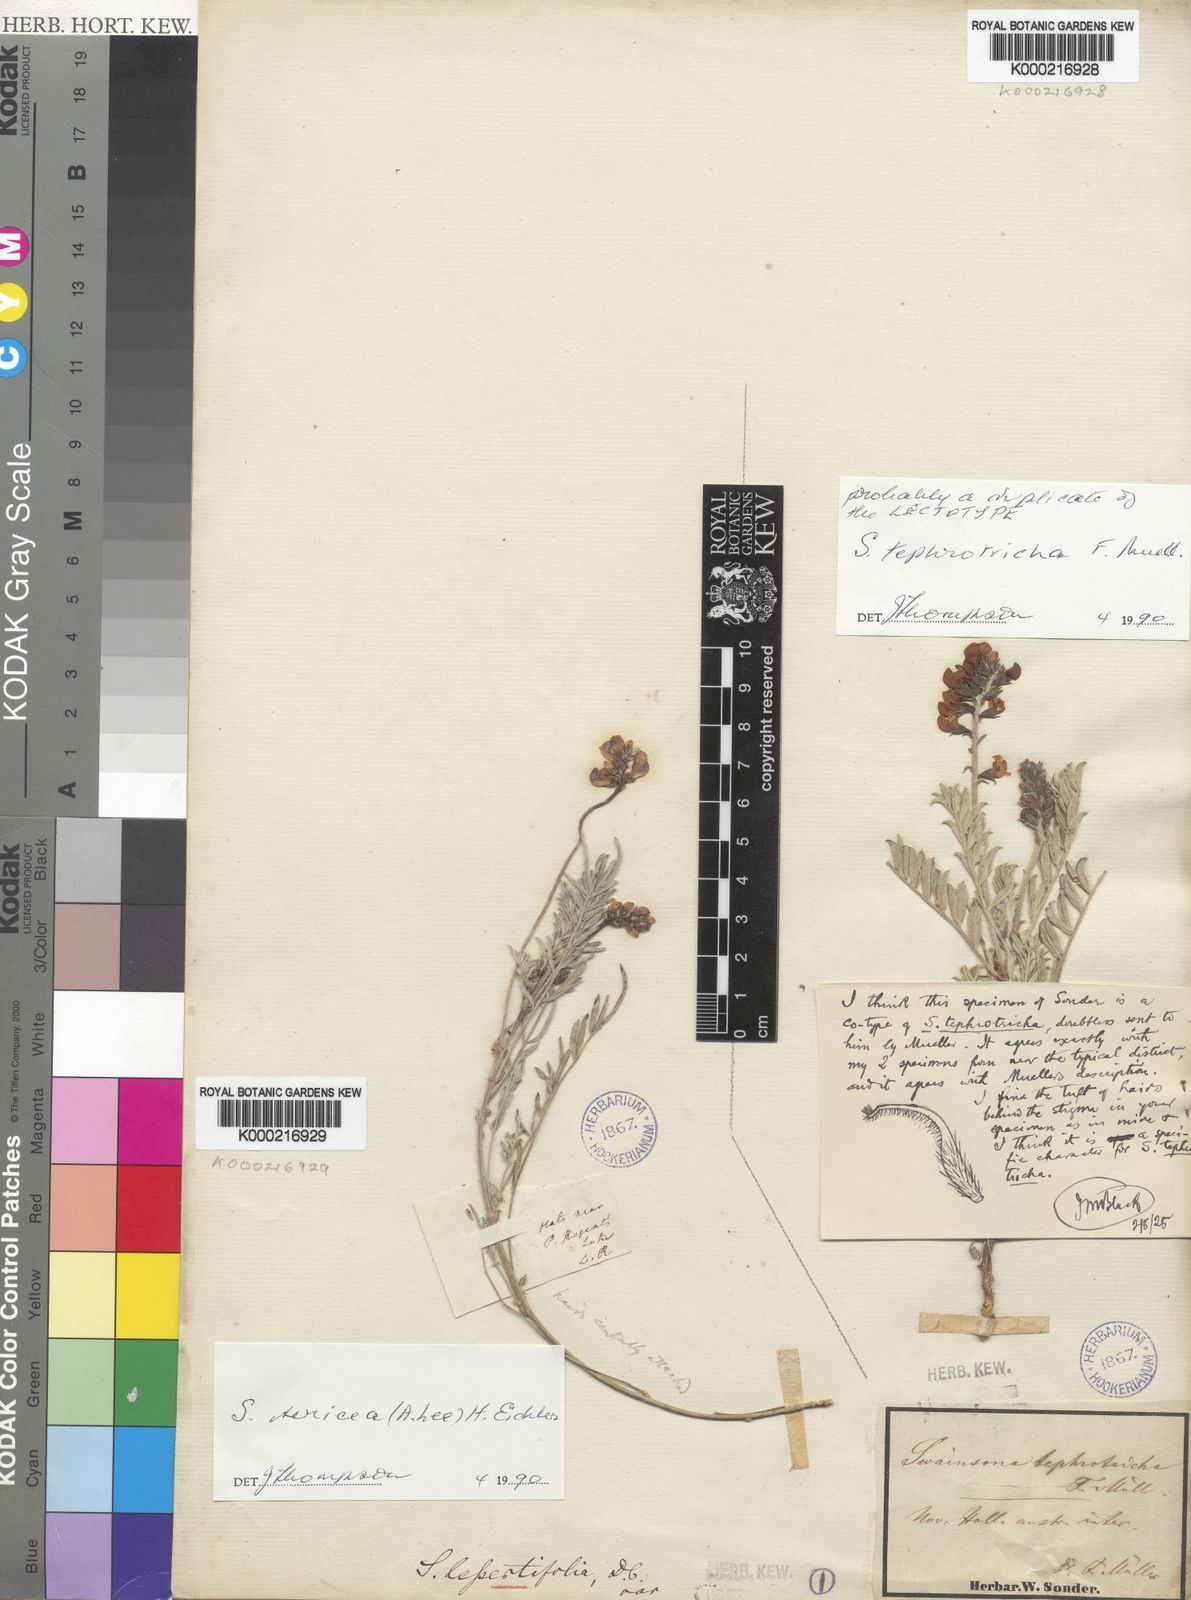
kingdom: Plantae
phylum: Tracheophyta
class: Magnoliopsida
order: Fabales
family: Fabaceae
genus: Swainsona
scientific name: Swainsona tephrotricha
